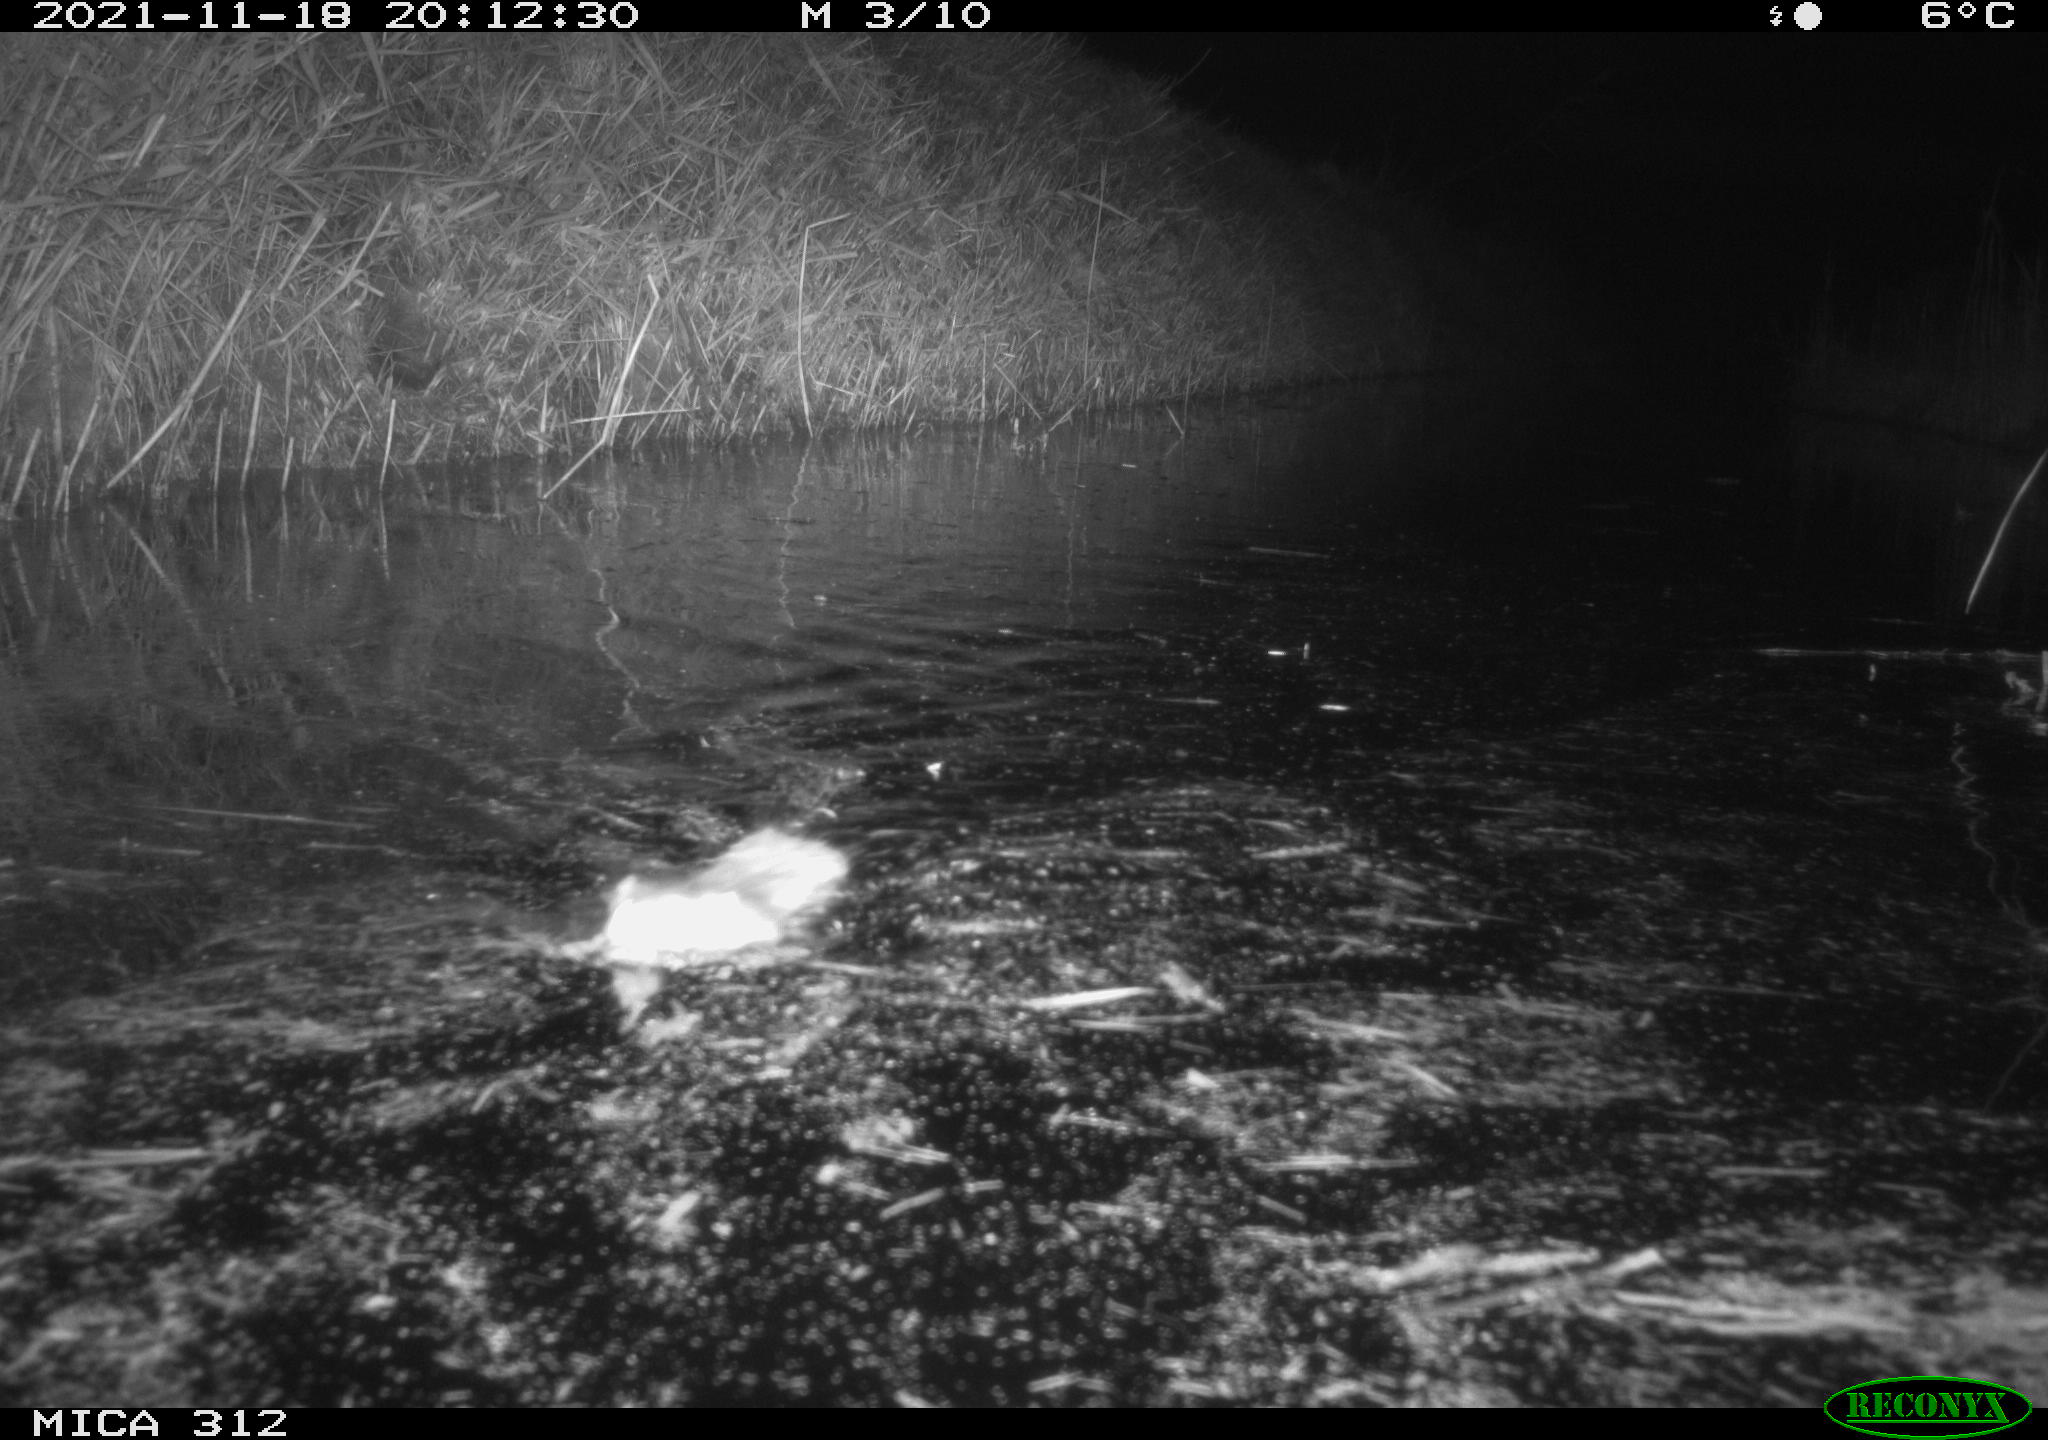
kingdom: Animalia
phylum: Chordata
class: Mammalia
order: Rodentia
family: Muridae
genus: Rattus
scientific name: Rattus norvegicus
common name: Brown rat
